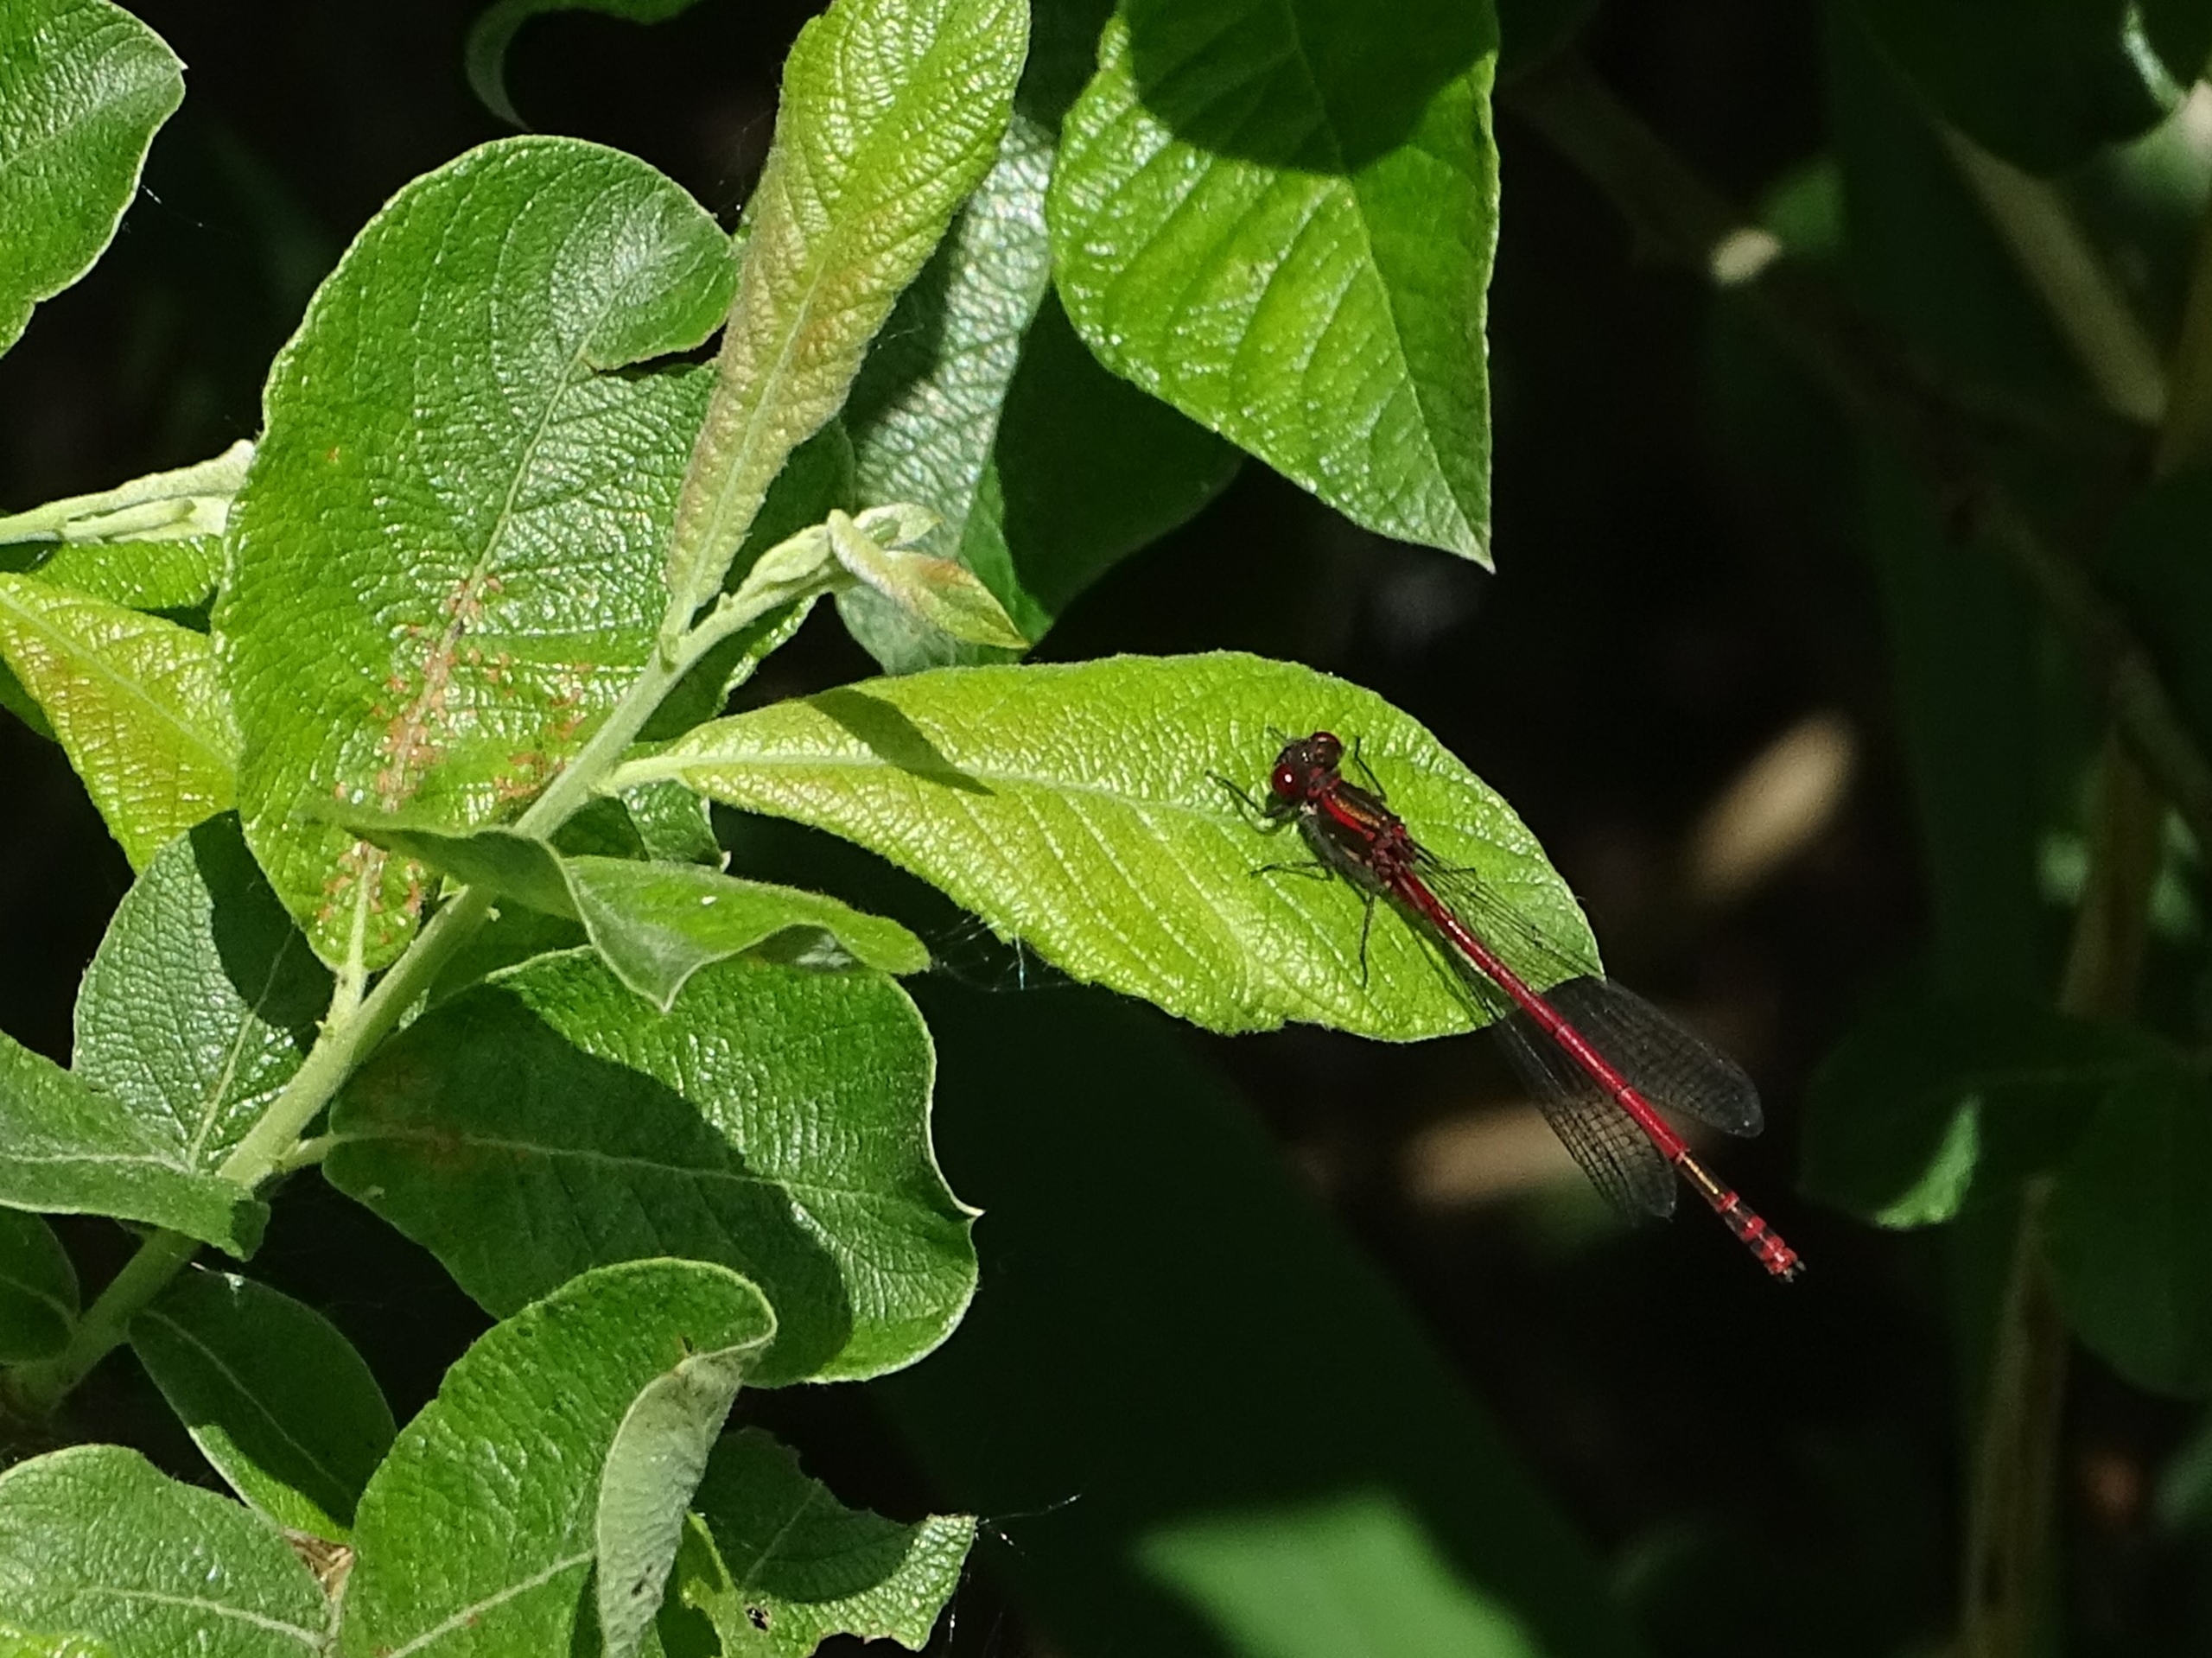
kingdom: Animalia
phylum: Arthropoda
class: Insecta
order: Odonata
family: Coenagrionidae
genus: Pyrrhosoma
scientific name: Pyrrhosoma nymphula
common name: Rød vandnymfe
